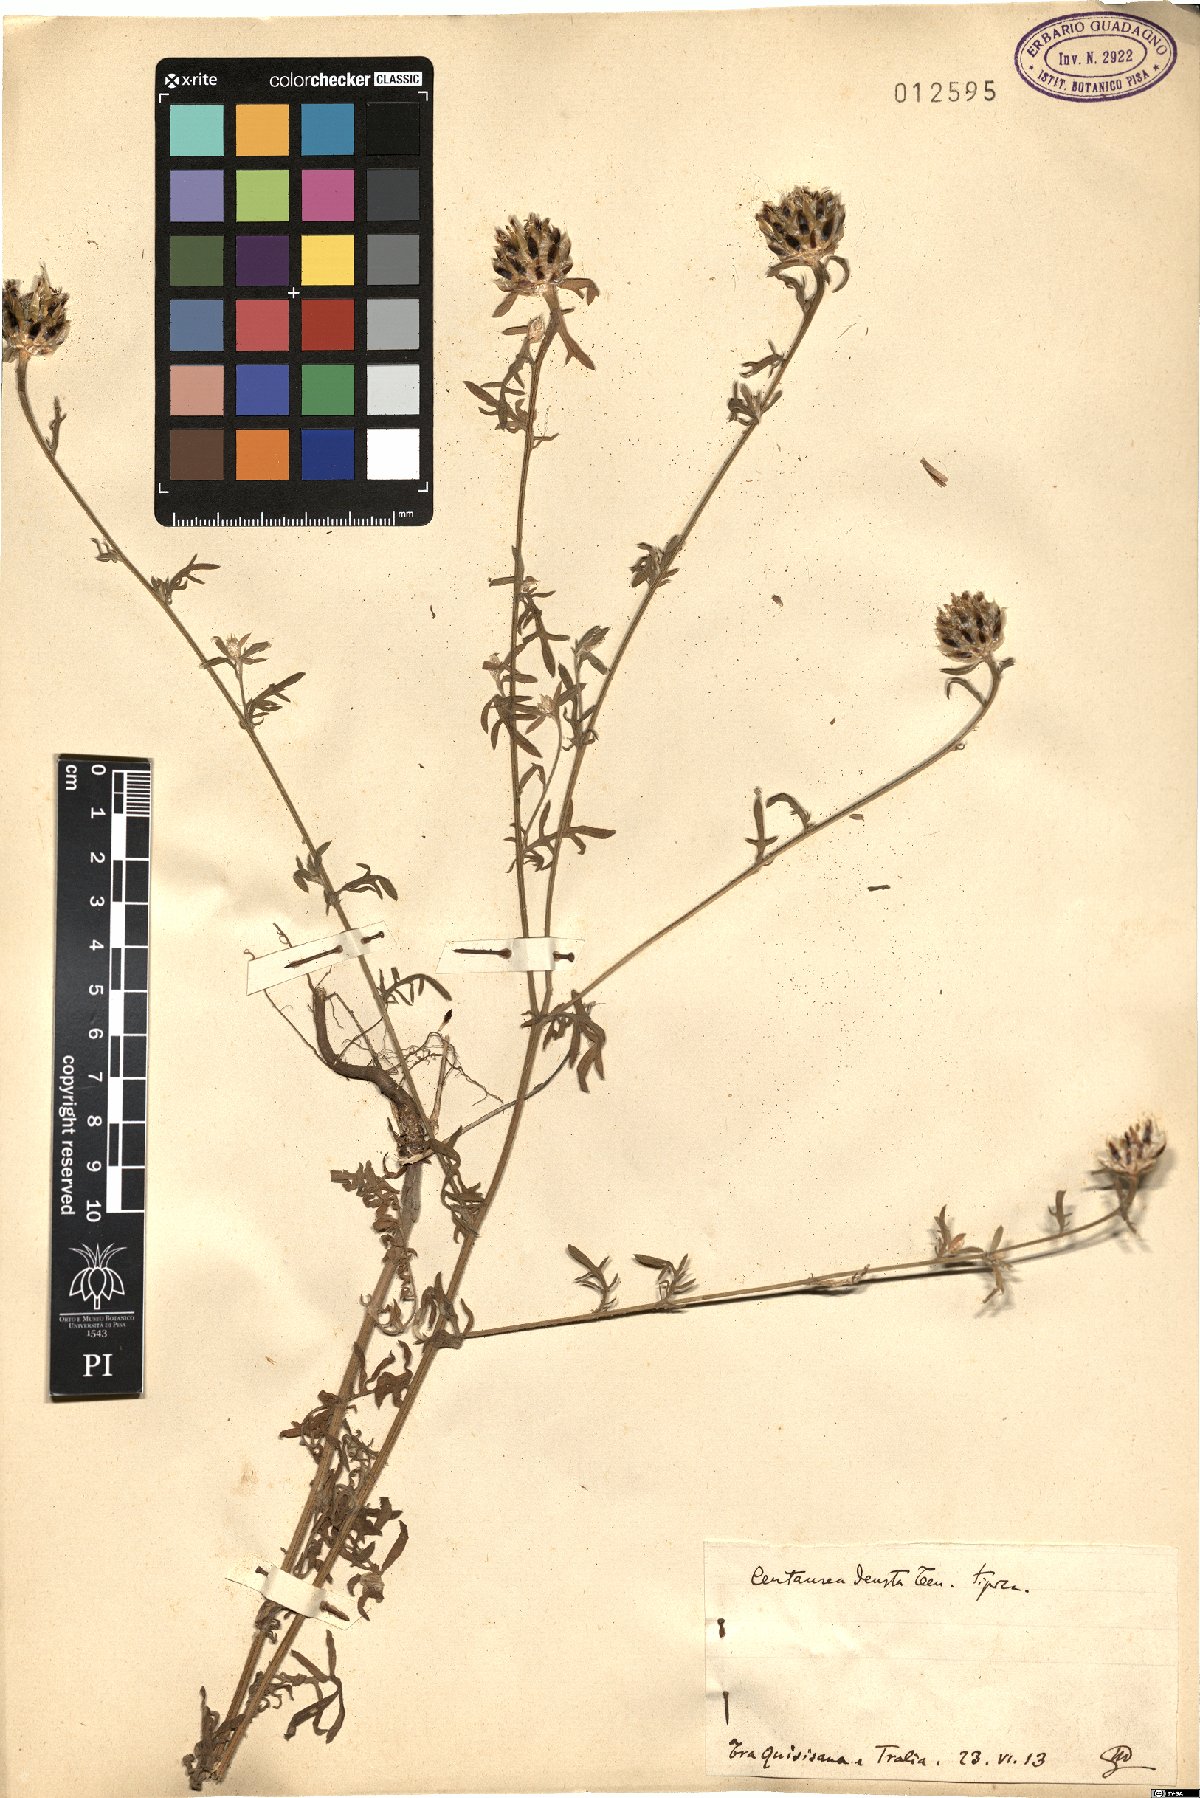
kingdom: Plantae
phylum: Tracheophyta
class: Magnoliopsida
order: Asterales
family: Asteraceae
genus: Centaurea
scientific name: Centaurea deusta
